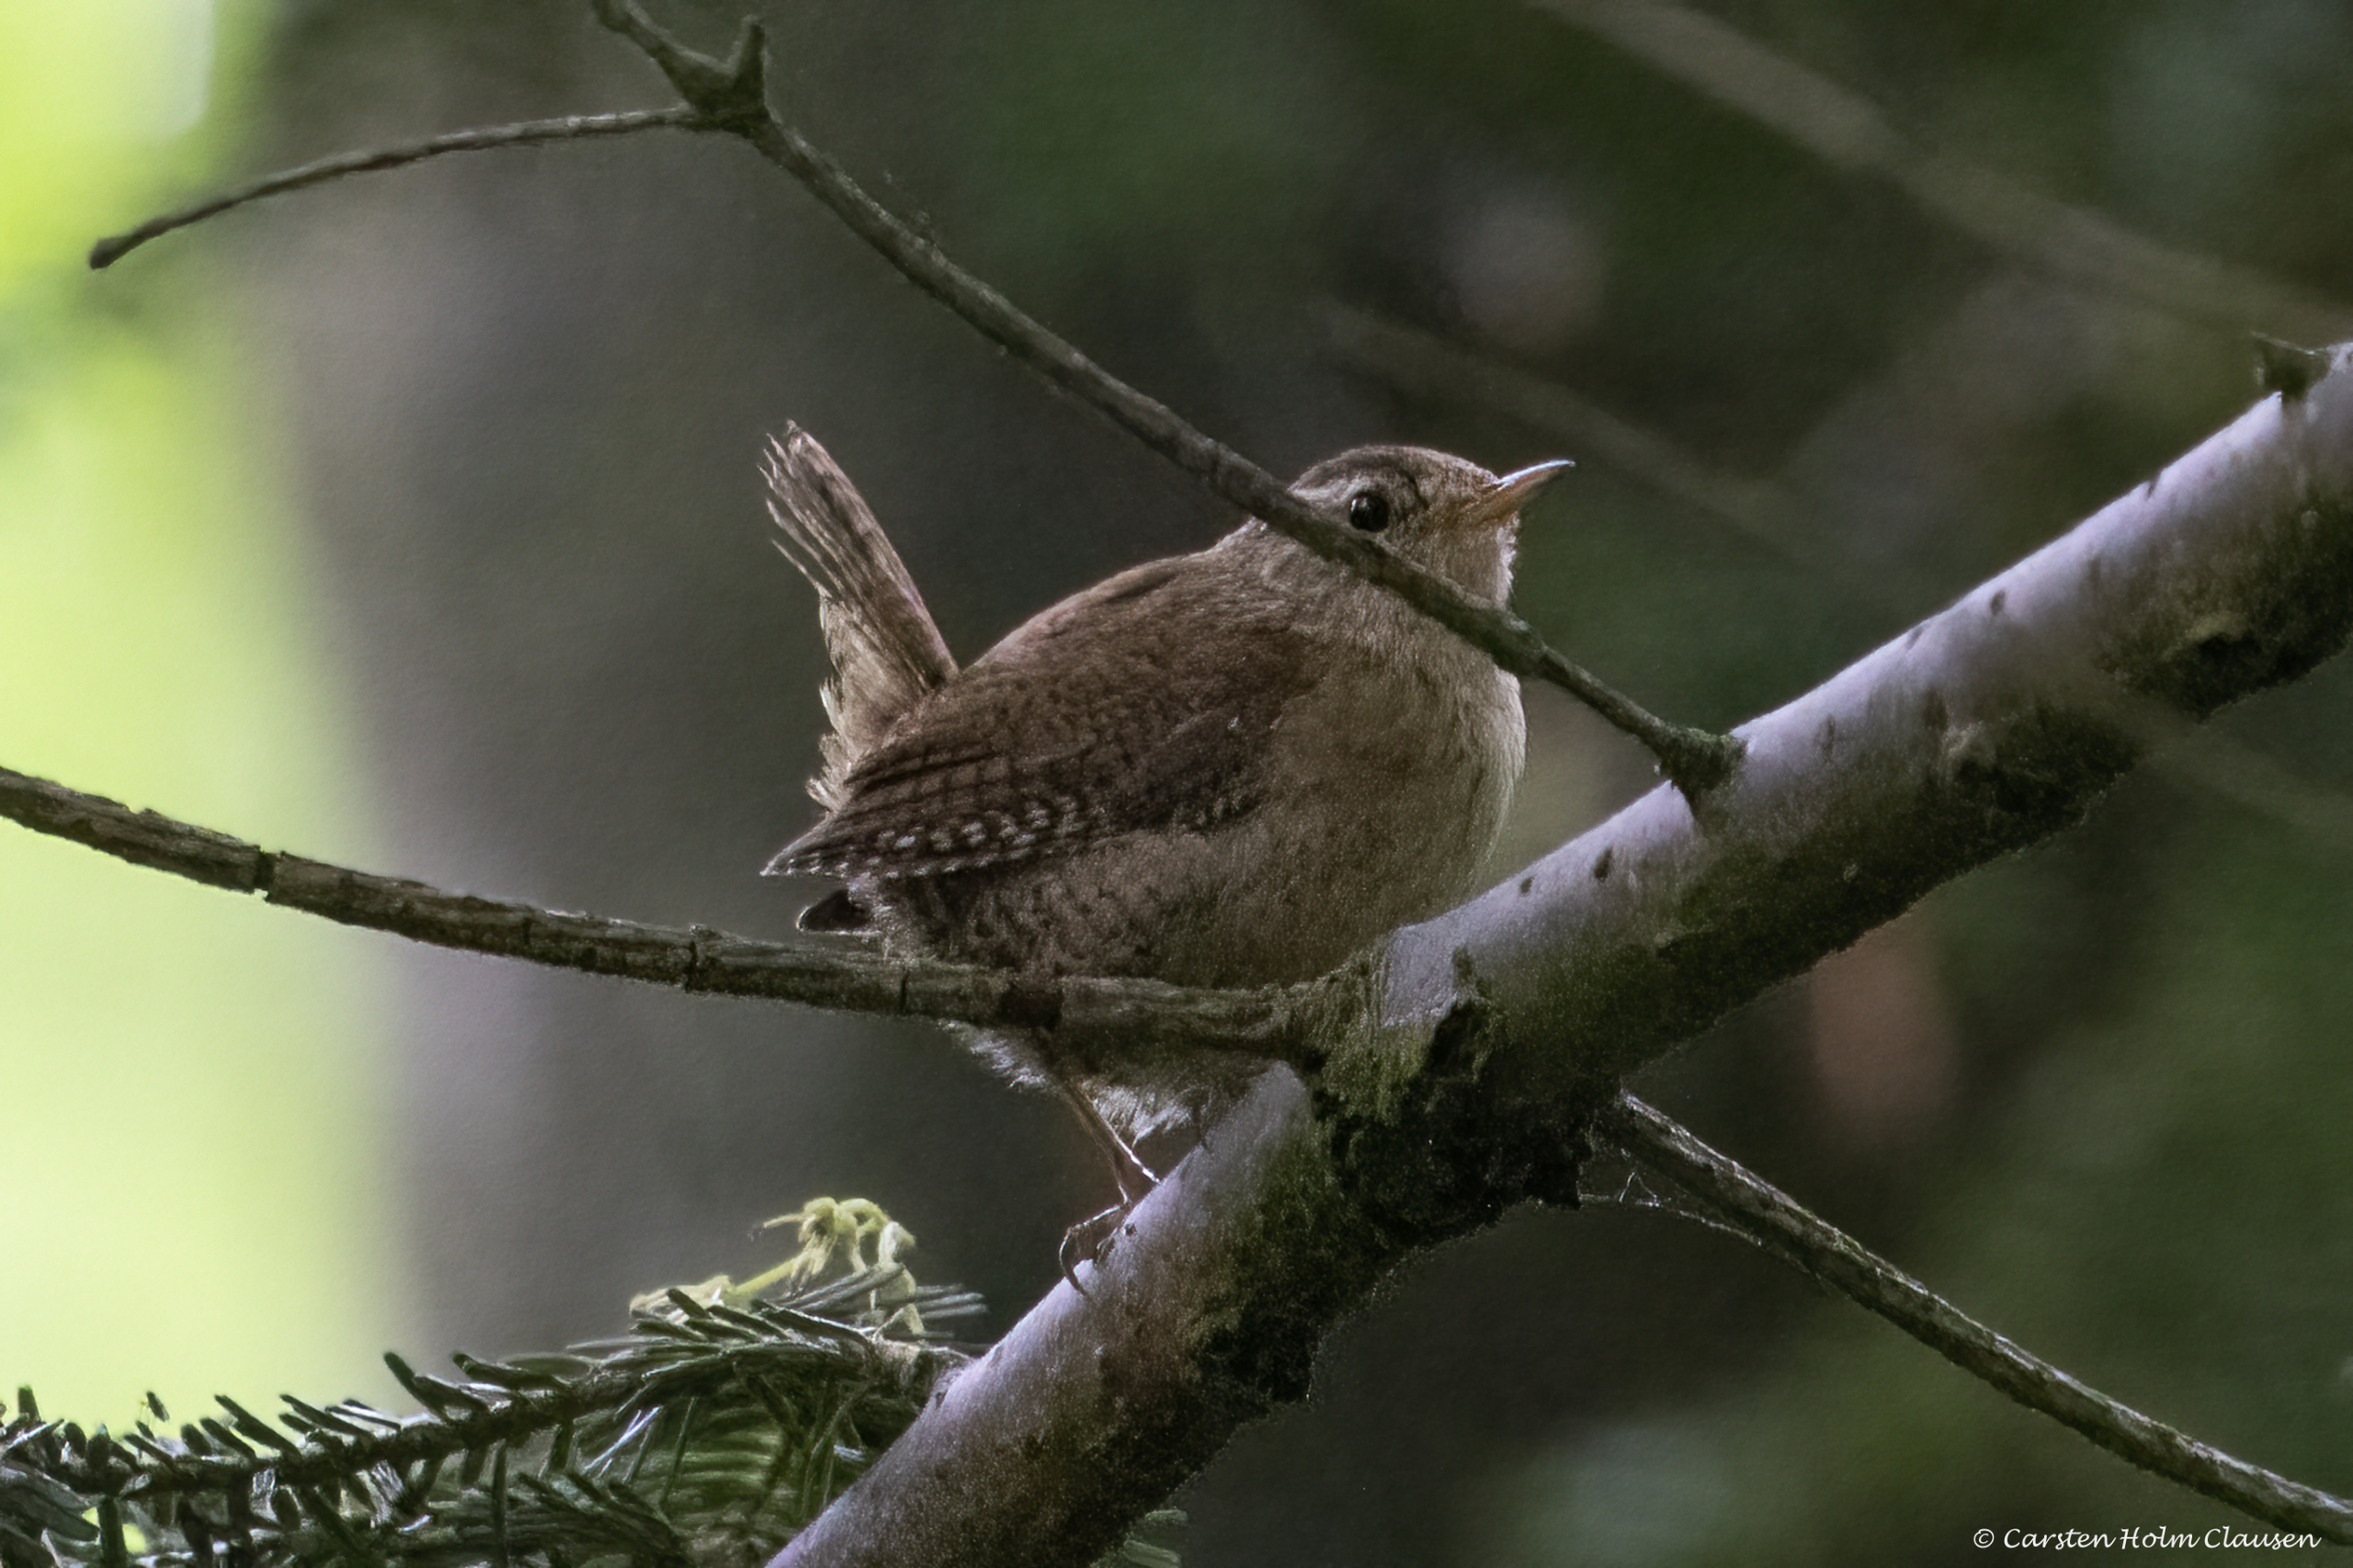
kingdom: Animalia
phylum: Chordata
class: Aves
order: Passeriformes
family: Troglodytidae
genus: Troglodytes
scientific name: Troglodytes troglodytes
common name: Gærdesmutte
